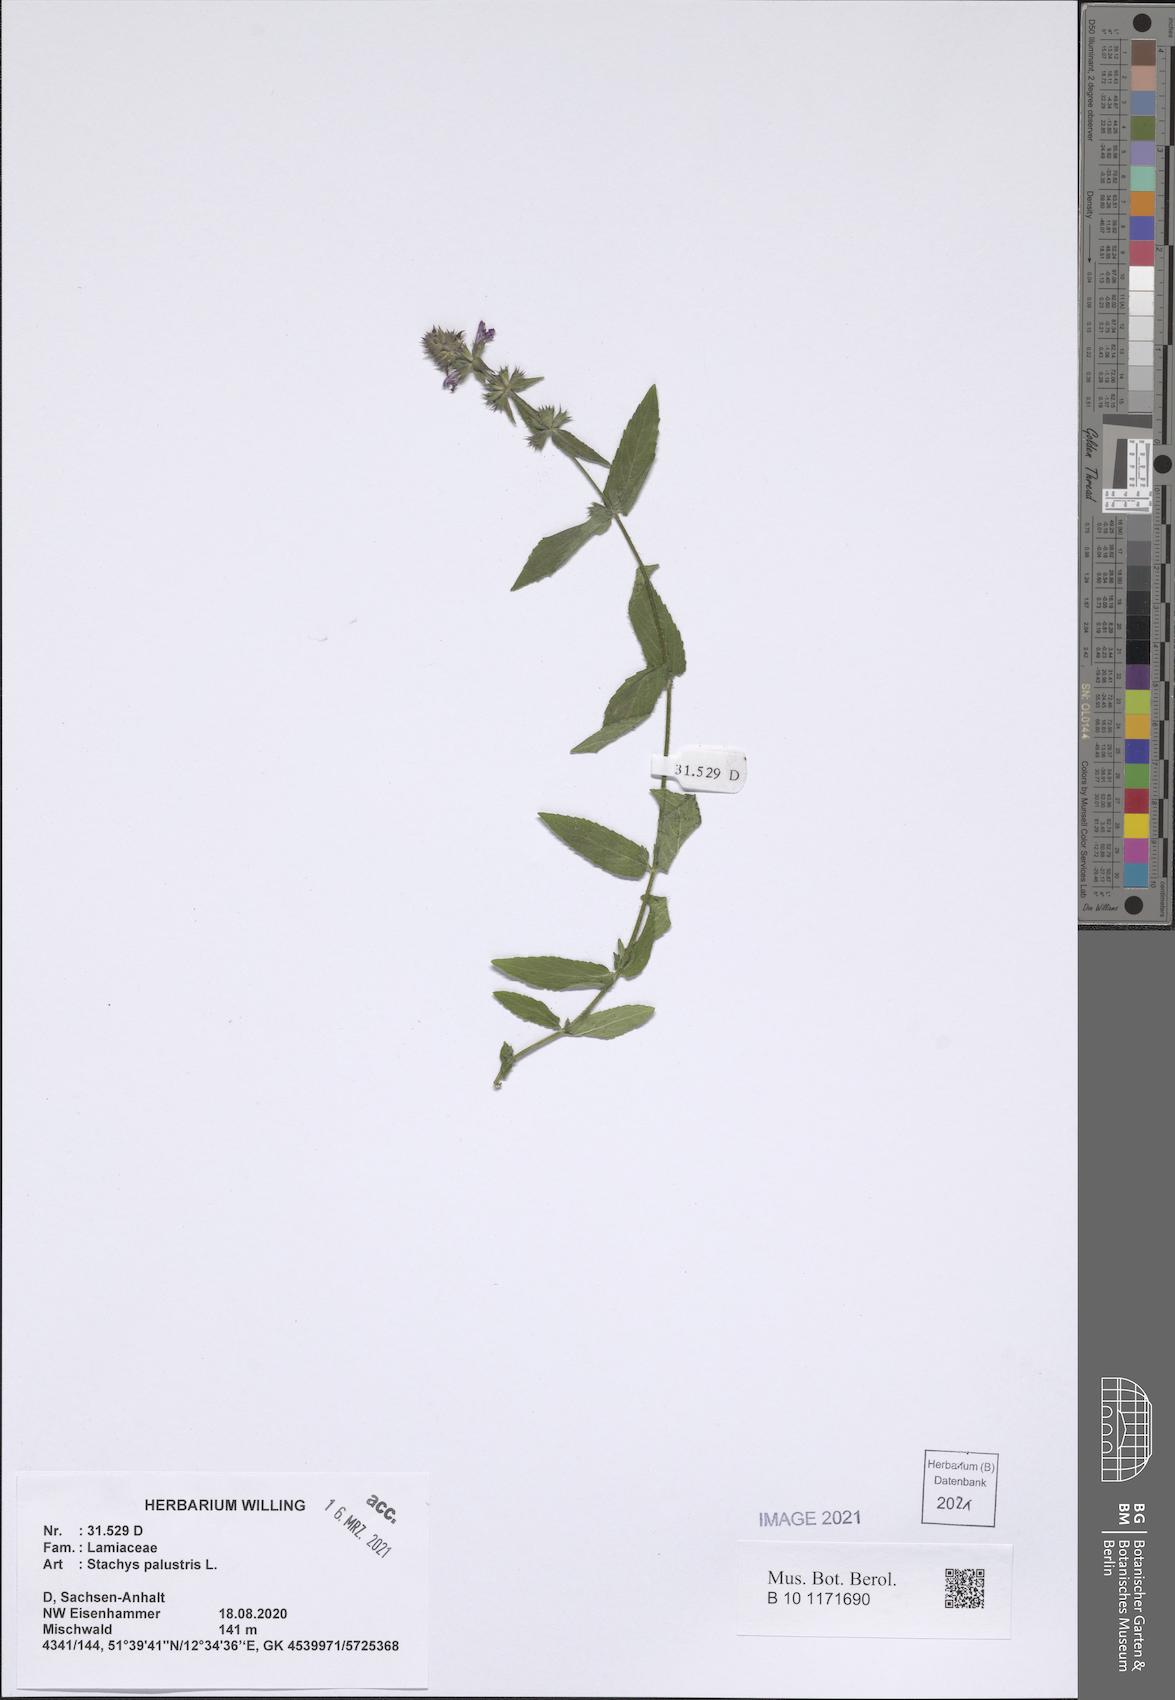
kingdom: Plantae
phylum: Tracheophyta
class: Magnoliopsida
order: Lamiales
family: Lamiaceae
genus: Stachys
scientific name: Stachys palustris
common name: Marsh woundwort
